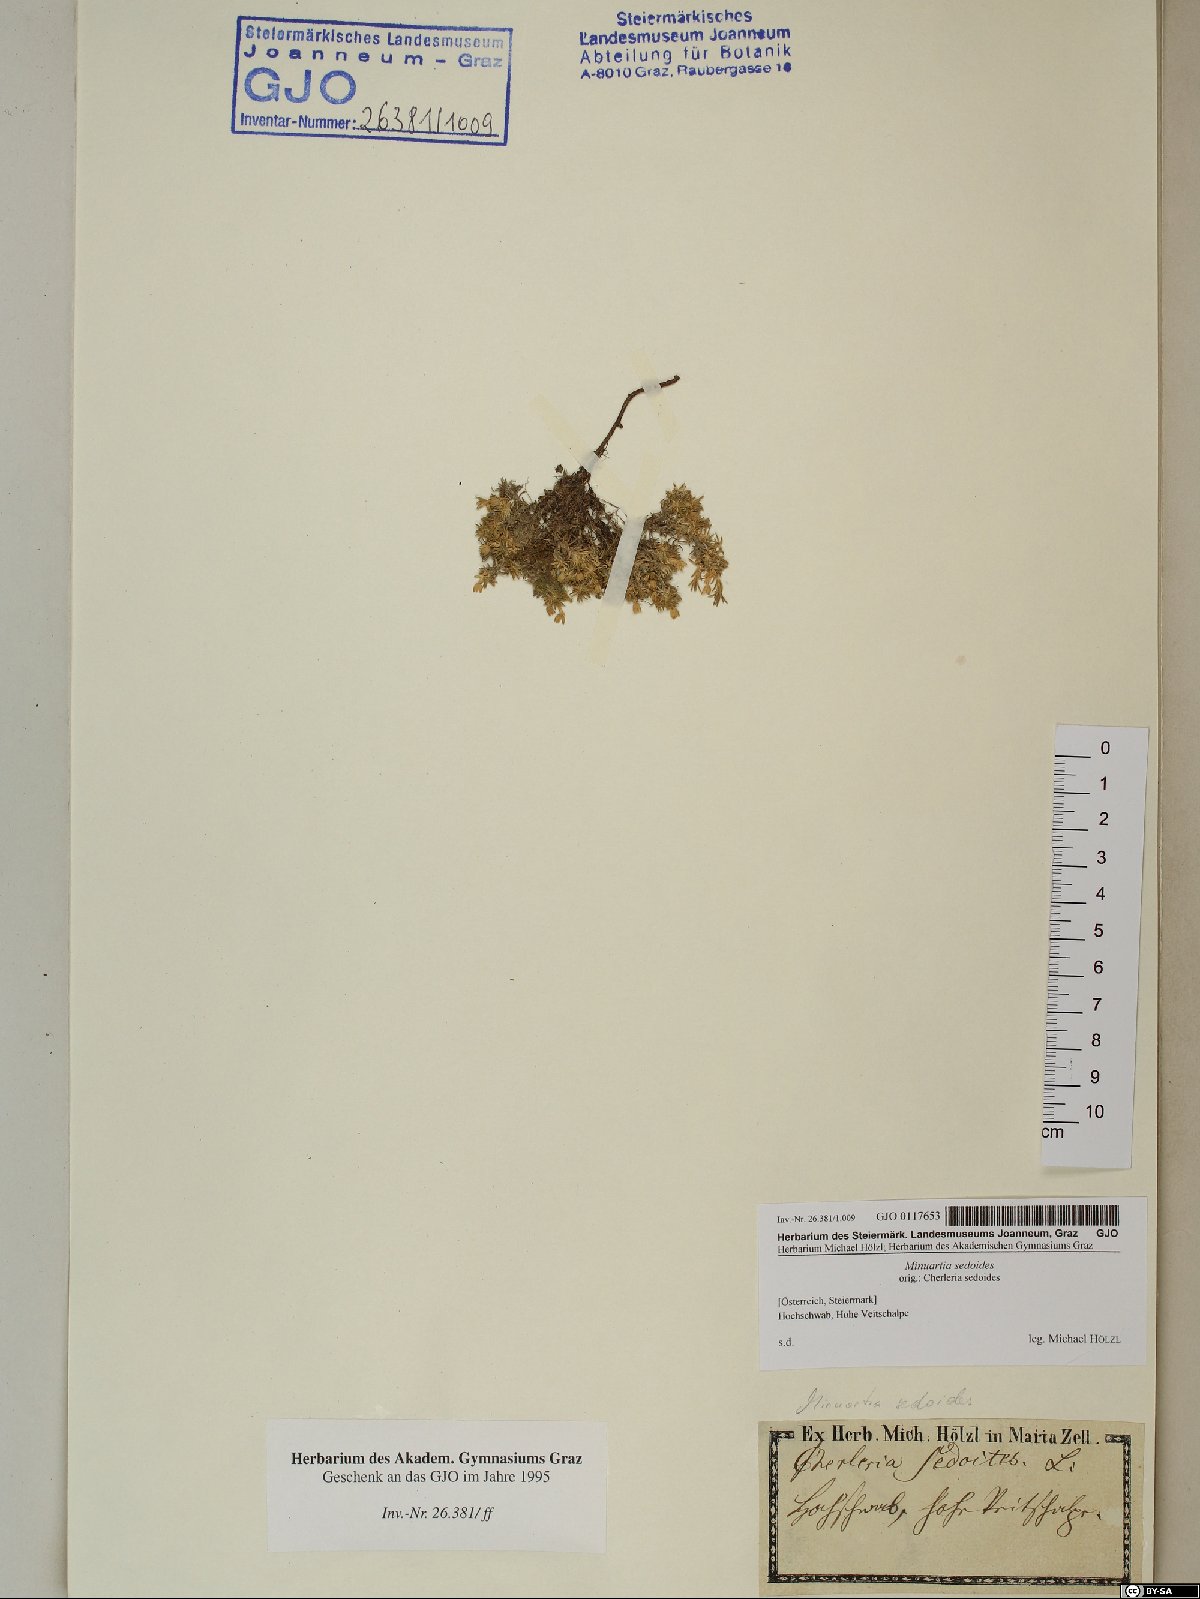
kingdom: Plantae
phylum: Tracheophyta
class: Magnoliopsida
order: Caryophyllales
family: Caryophyllaceae
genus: Cherleria
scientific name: Cherleria sedoides
